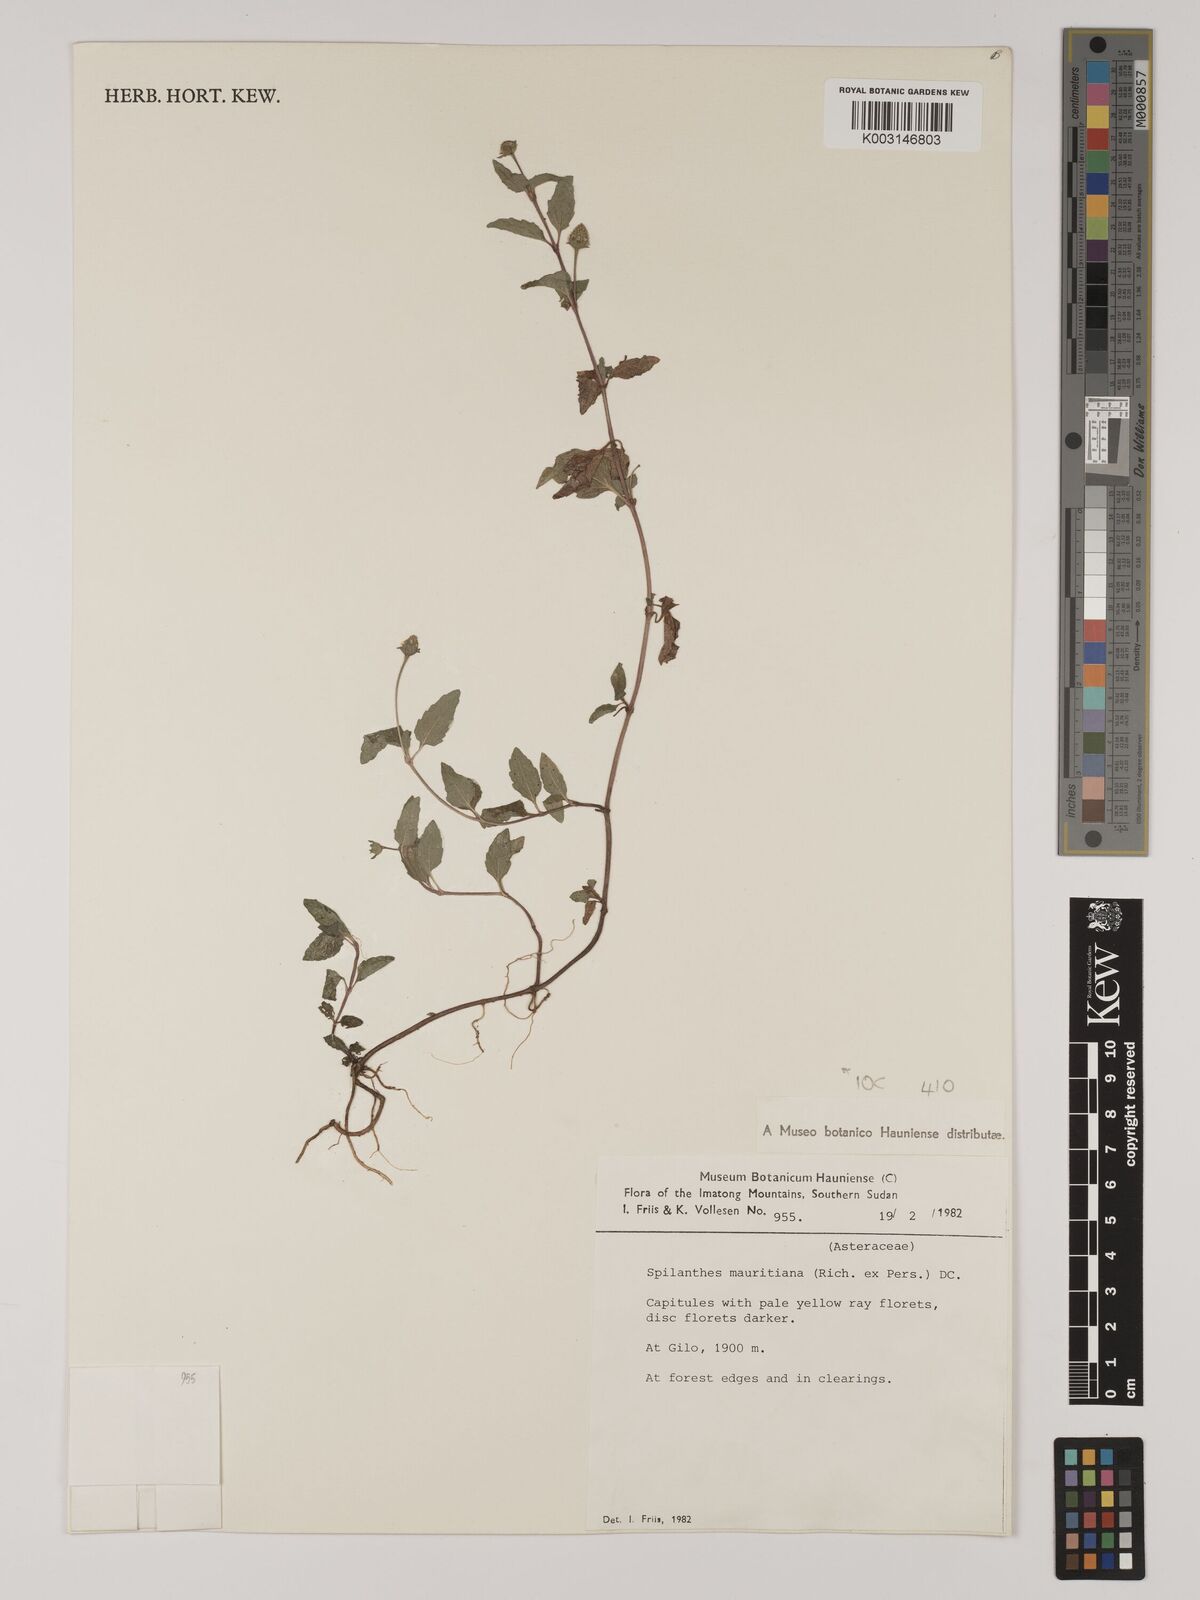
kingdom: Plantae
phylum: Tracheophyta
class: Magnoliopsida
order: Asterales
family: Asteraceae
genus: Blainvillea
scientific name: Blainvillea acmella
